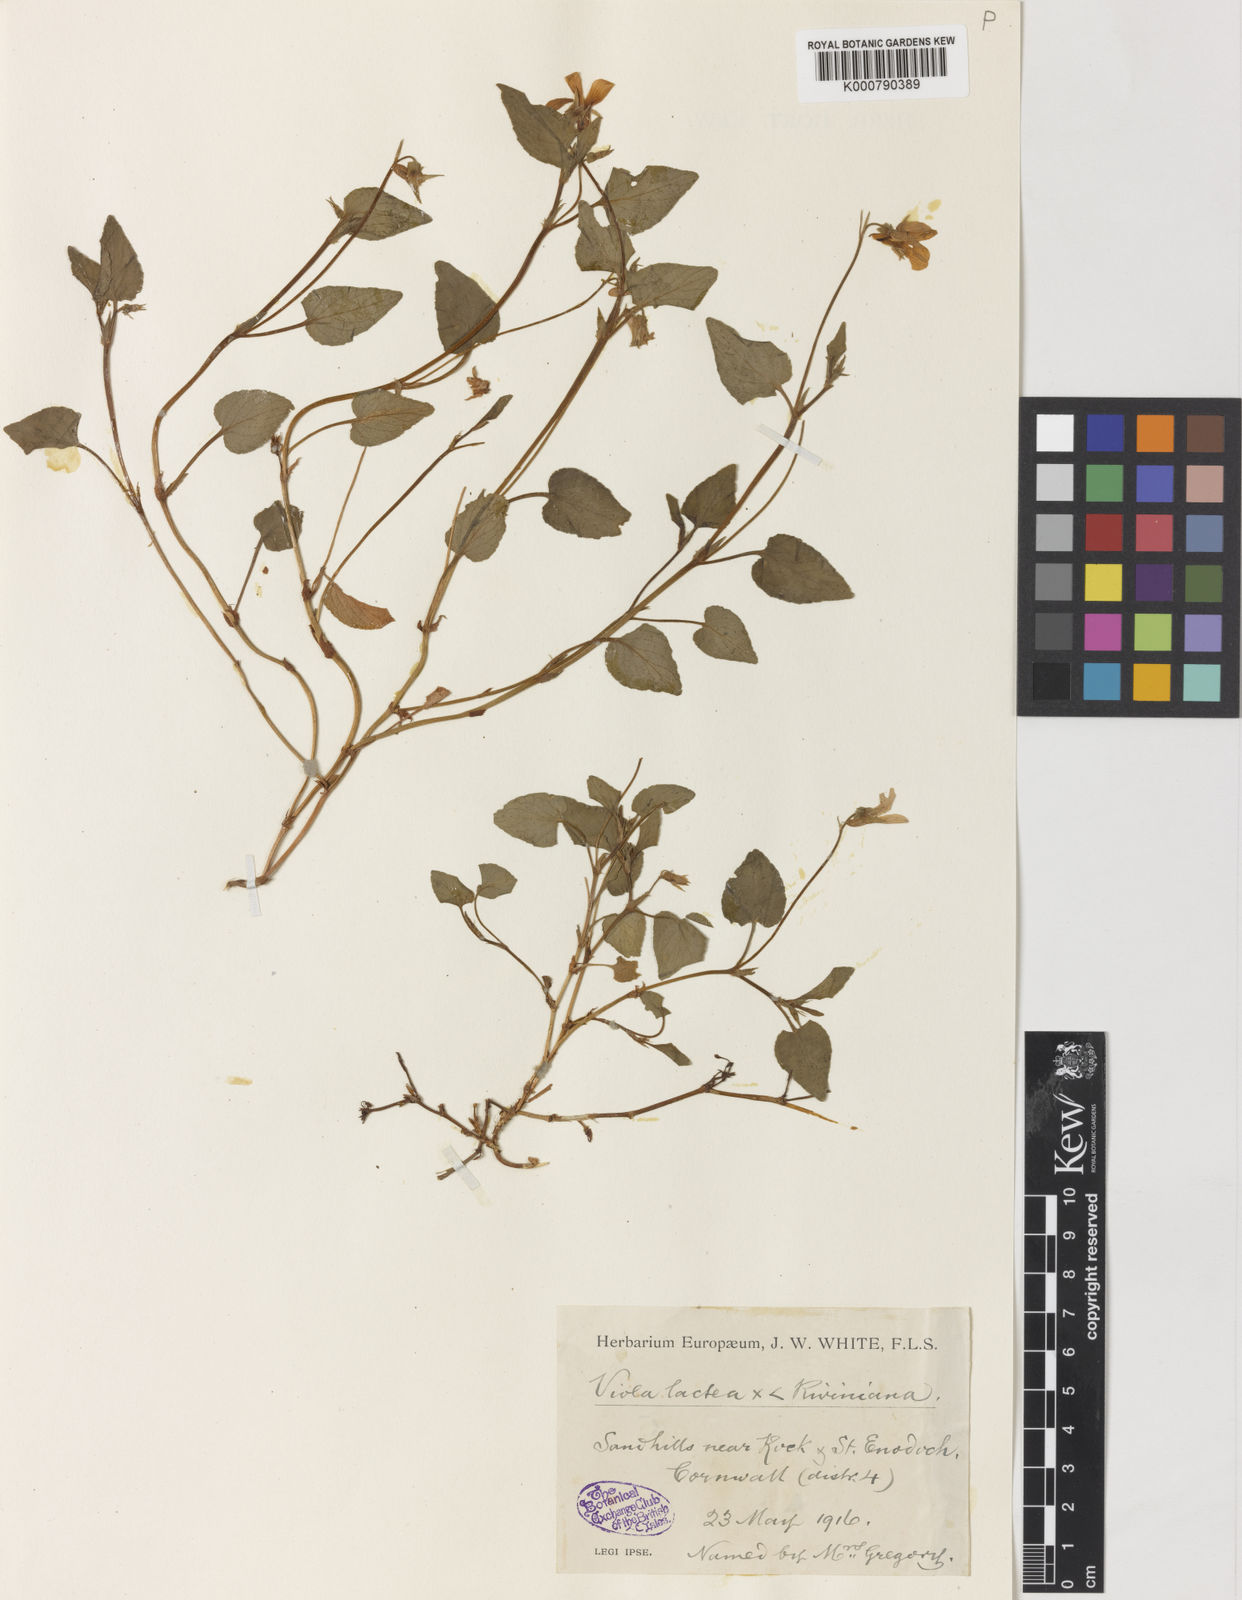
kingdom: Plantae
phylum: Tracheophyta
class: Magnoliopsida
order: Malpighiales
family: Violaceae
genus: Viola
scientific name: Viola lactea
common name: Pale dog-violet
